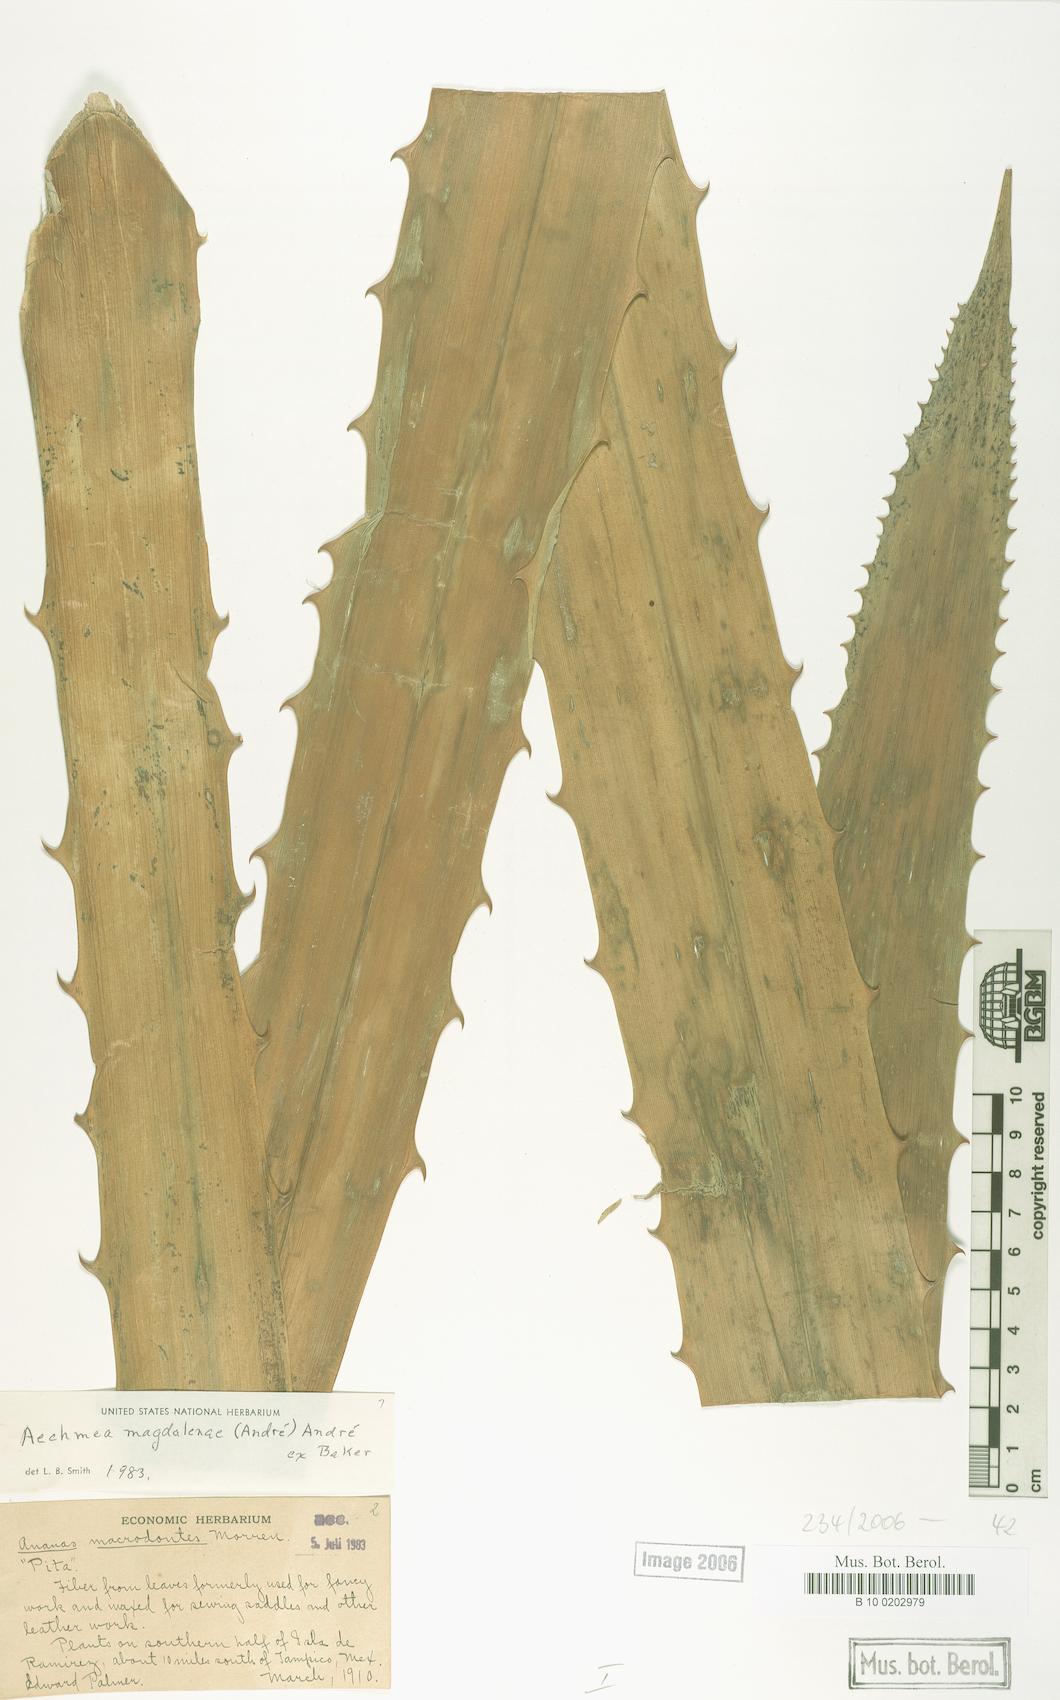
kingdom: Plantae
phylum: Tracheophyta
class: Liliopsida
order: Poales
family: Bromeliaceae
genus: Aechmea
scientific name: Aechmea magdalenae
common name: Arghan
